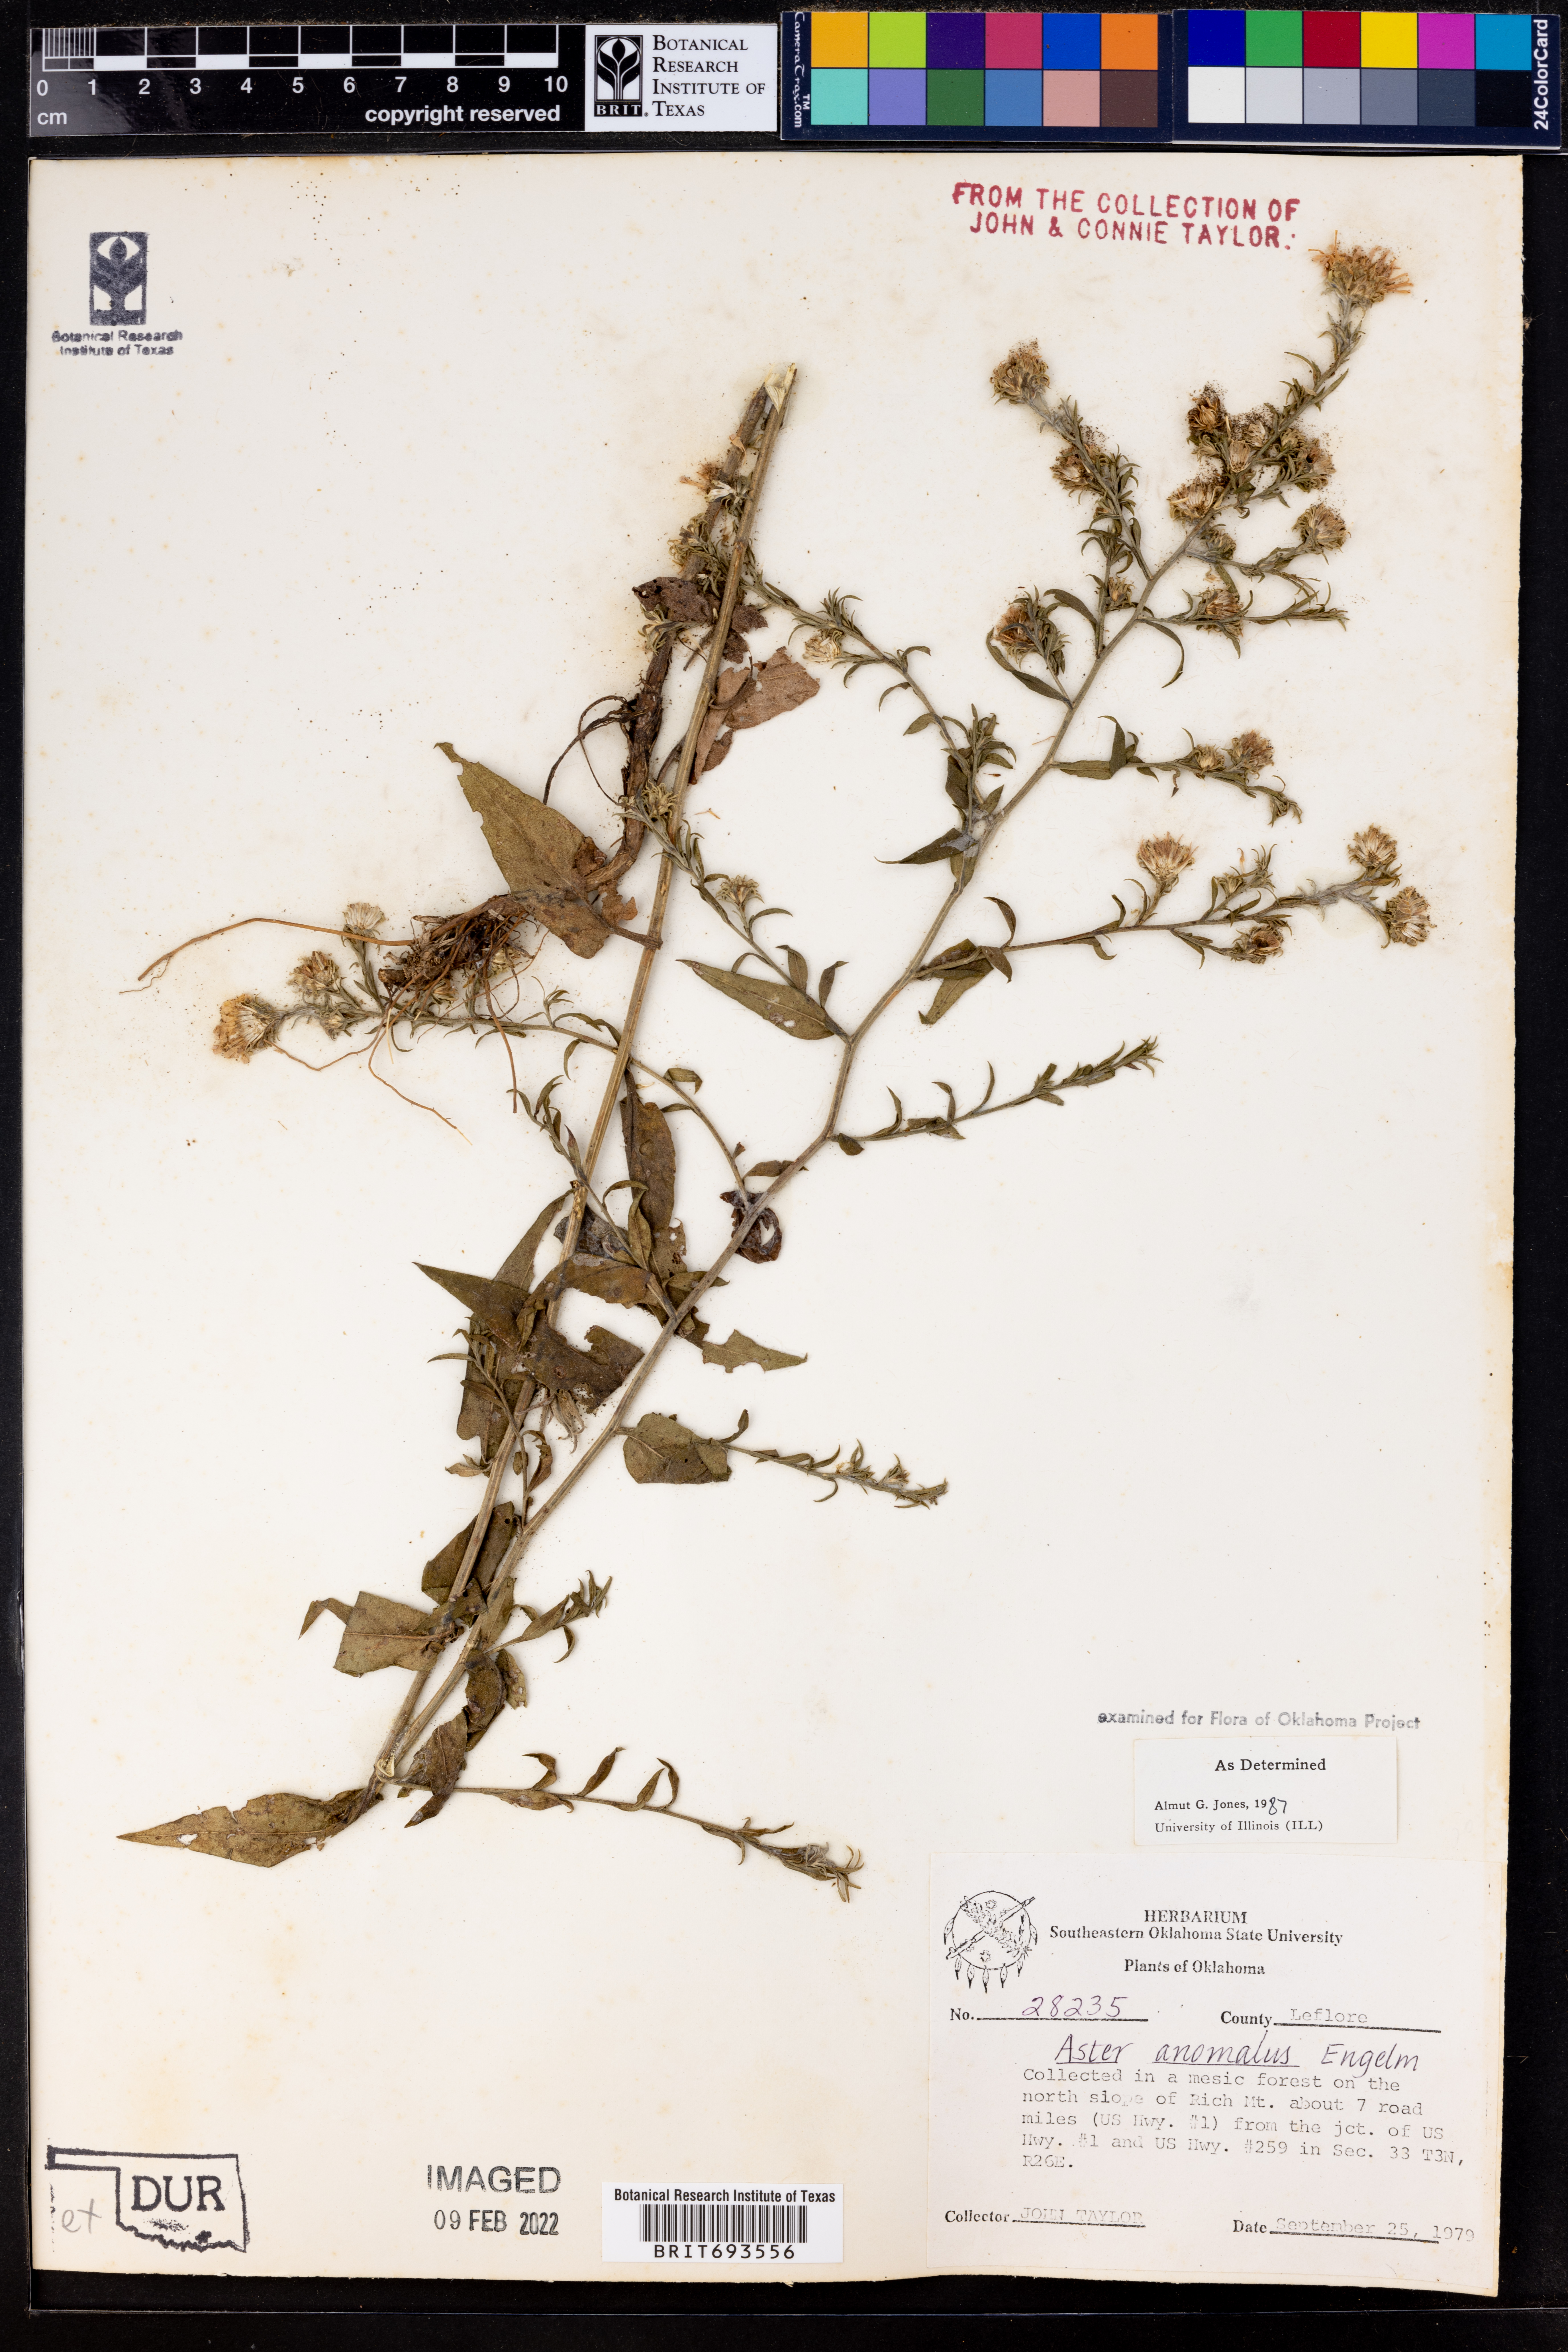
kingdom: Plantae
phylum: Tracheophyta
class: Magnoliopsida
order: Asterales
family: Asteraceae
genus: Symphyotrichum
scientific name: Symphyotrichum anomalum
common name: Many-ray aster
